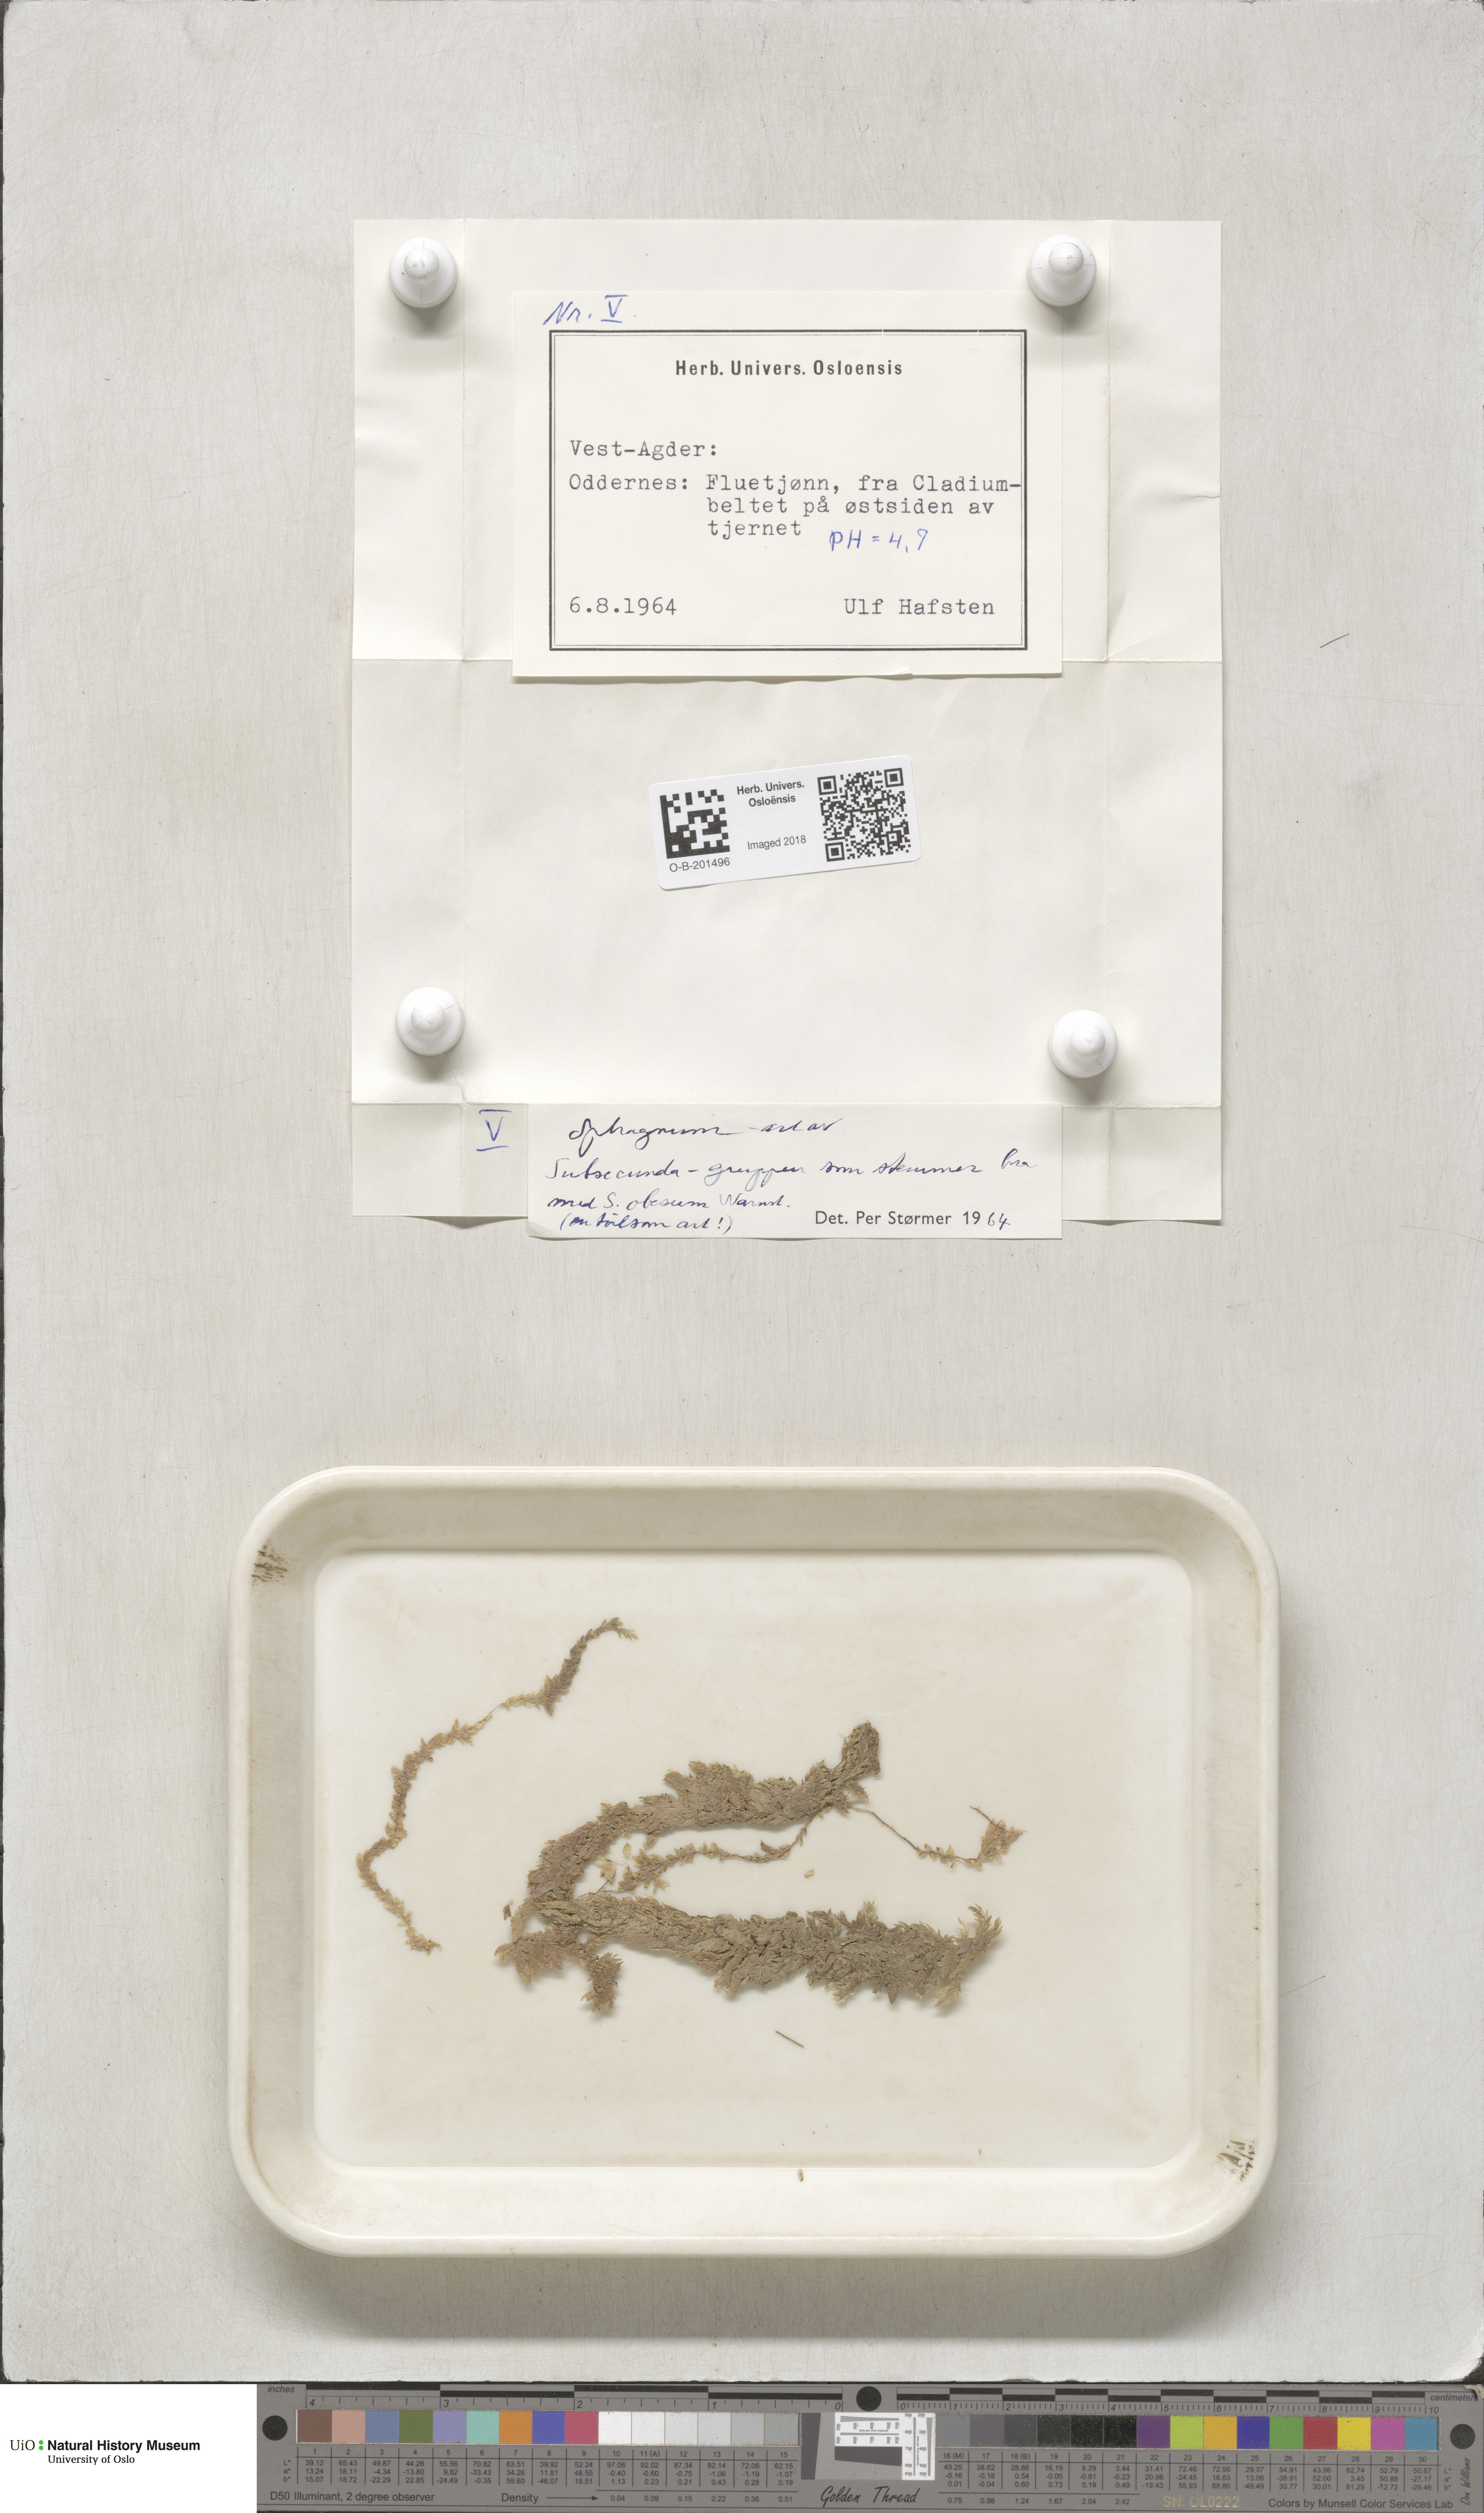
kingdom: Plantae
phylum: Bryophyta
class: Sphagnopsida
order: Sphagnales
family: Sphagnaceae
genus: Sphagnum
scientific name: Sphagnum inundatum
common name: Lesser cow-horn bog-moss
